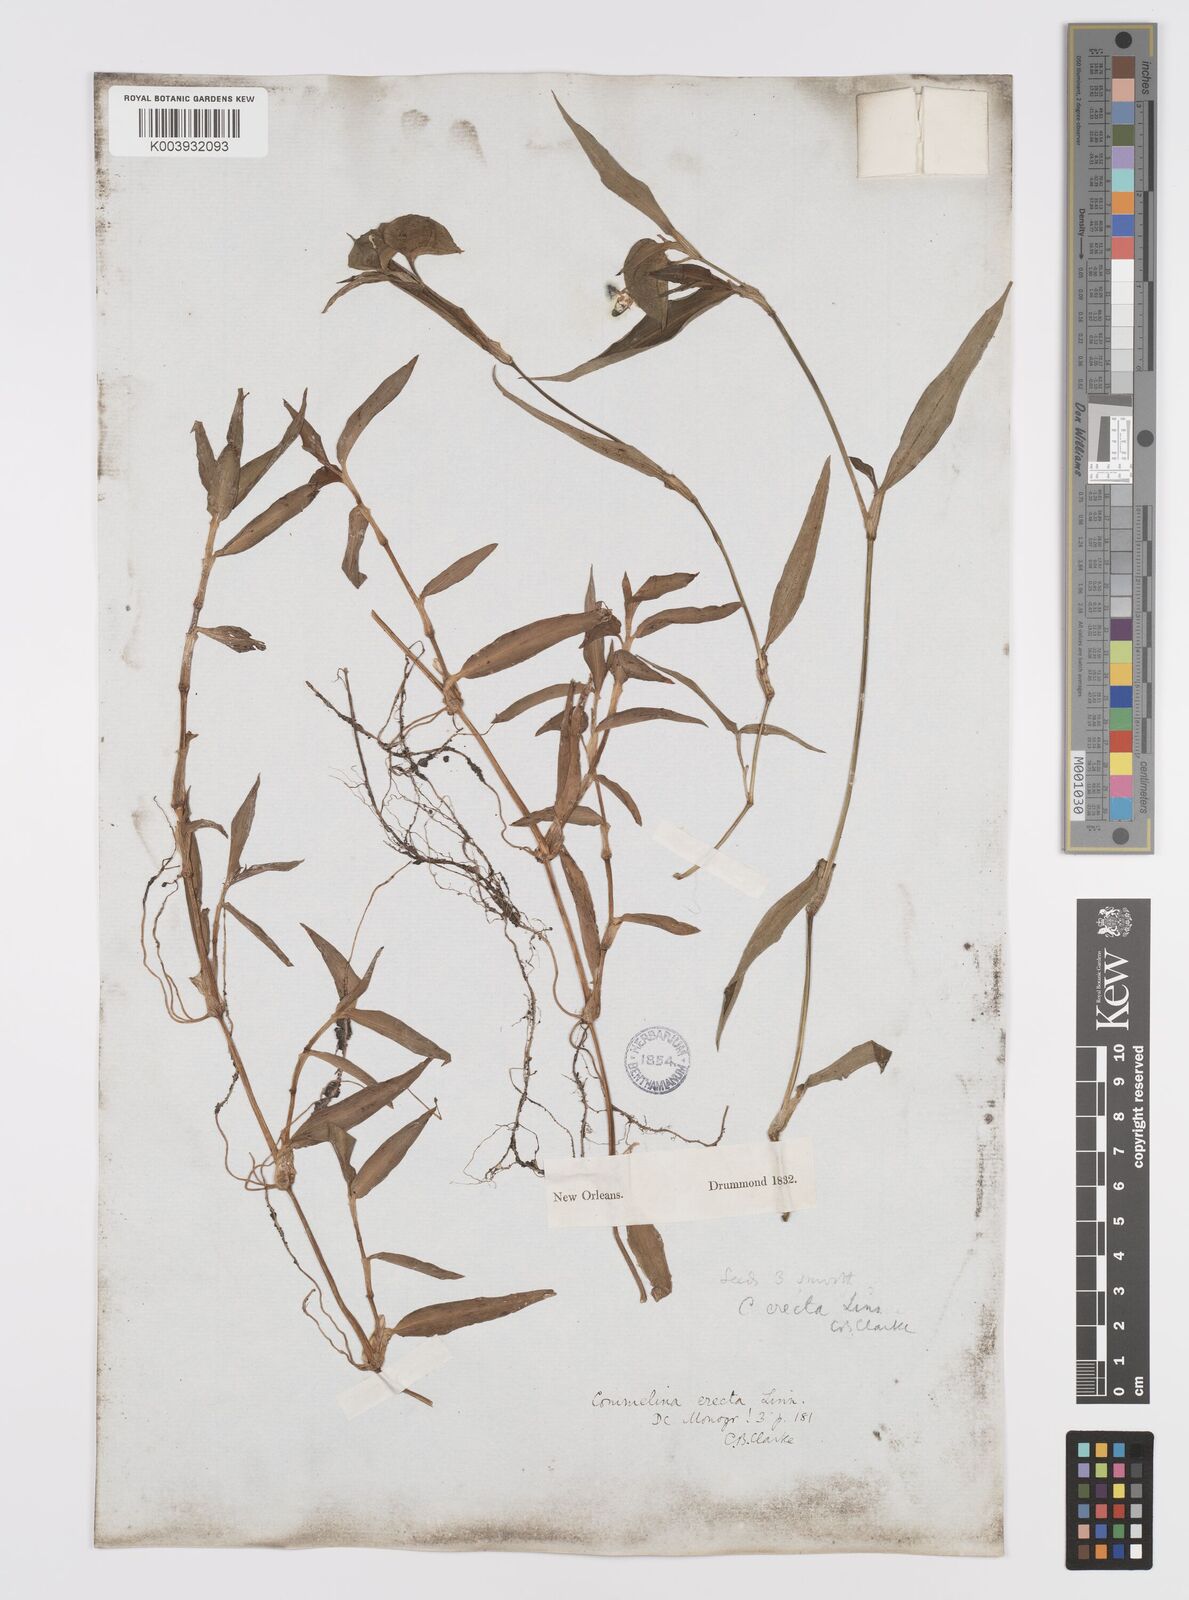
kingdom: Plantae
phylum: Tracheophyta
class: Liliopsida
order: Commelinales
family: Commelinaceae
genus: Commelina
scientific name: Commelina erecta
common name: Blousel blommetjie
